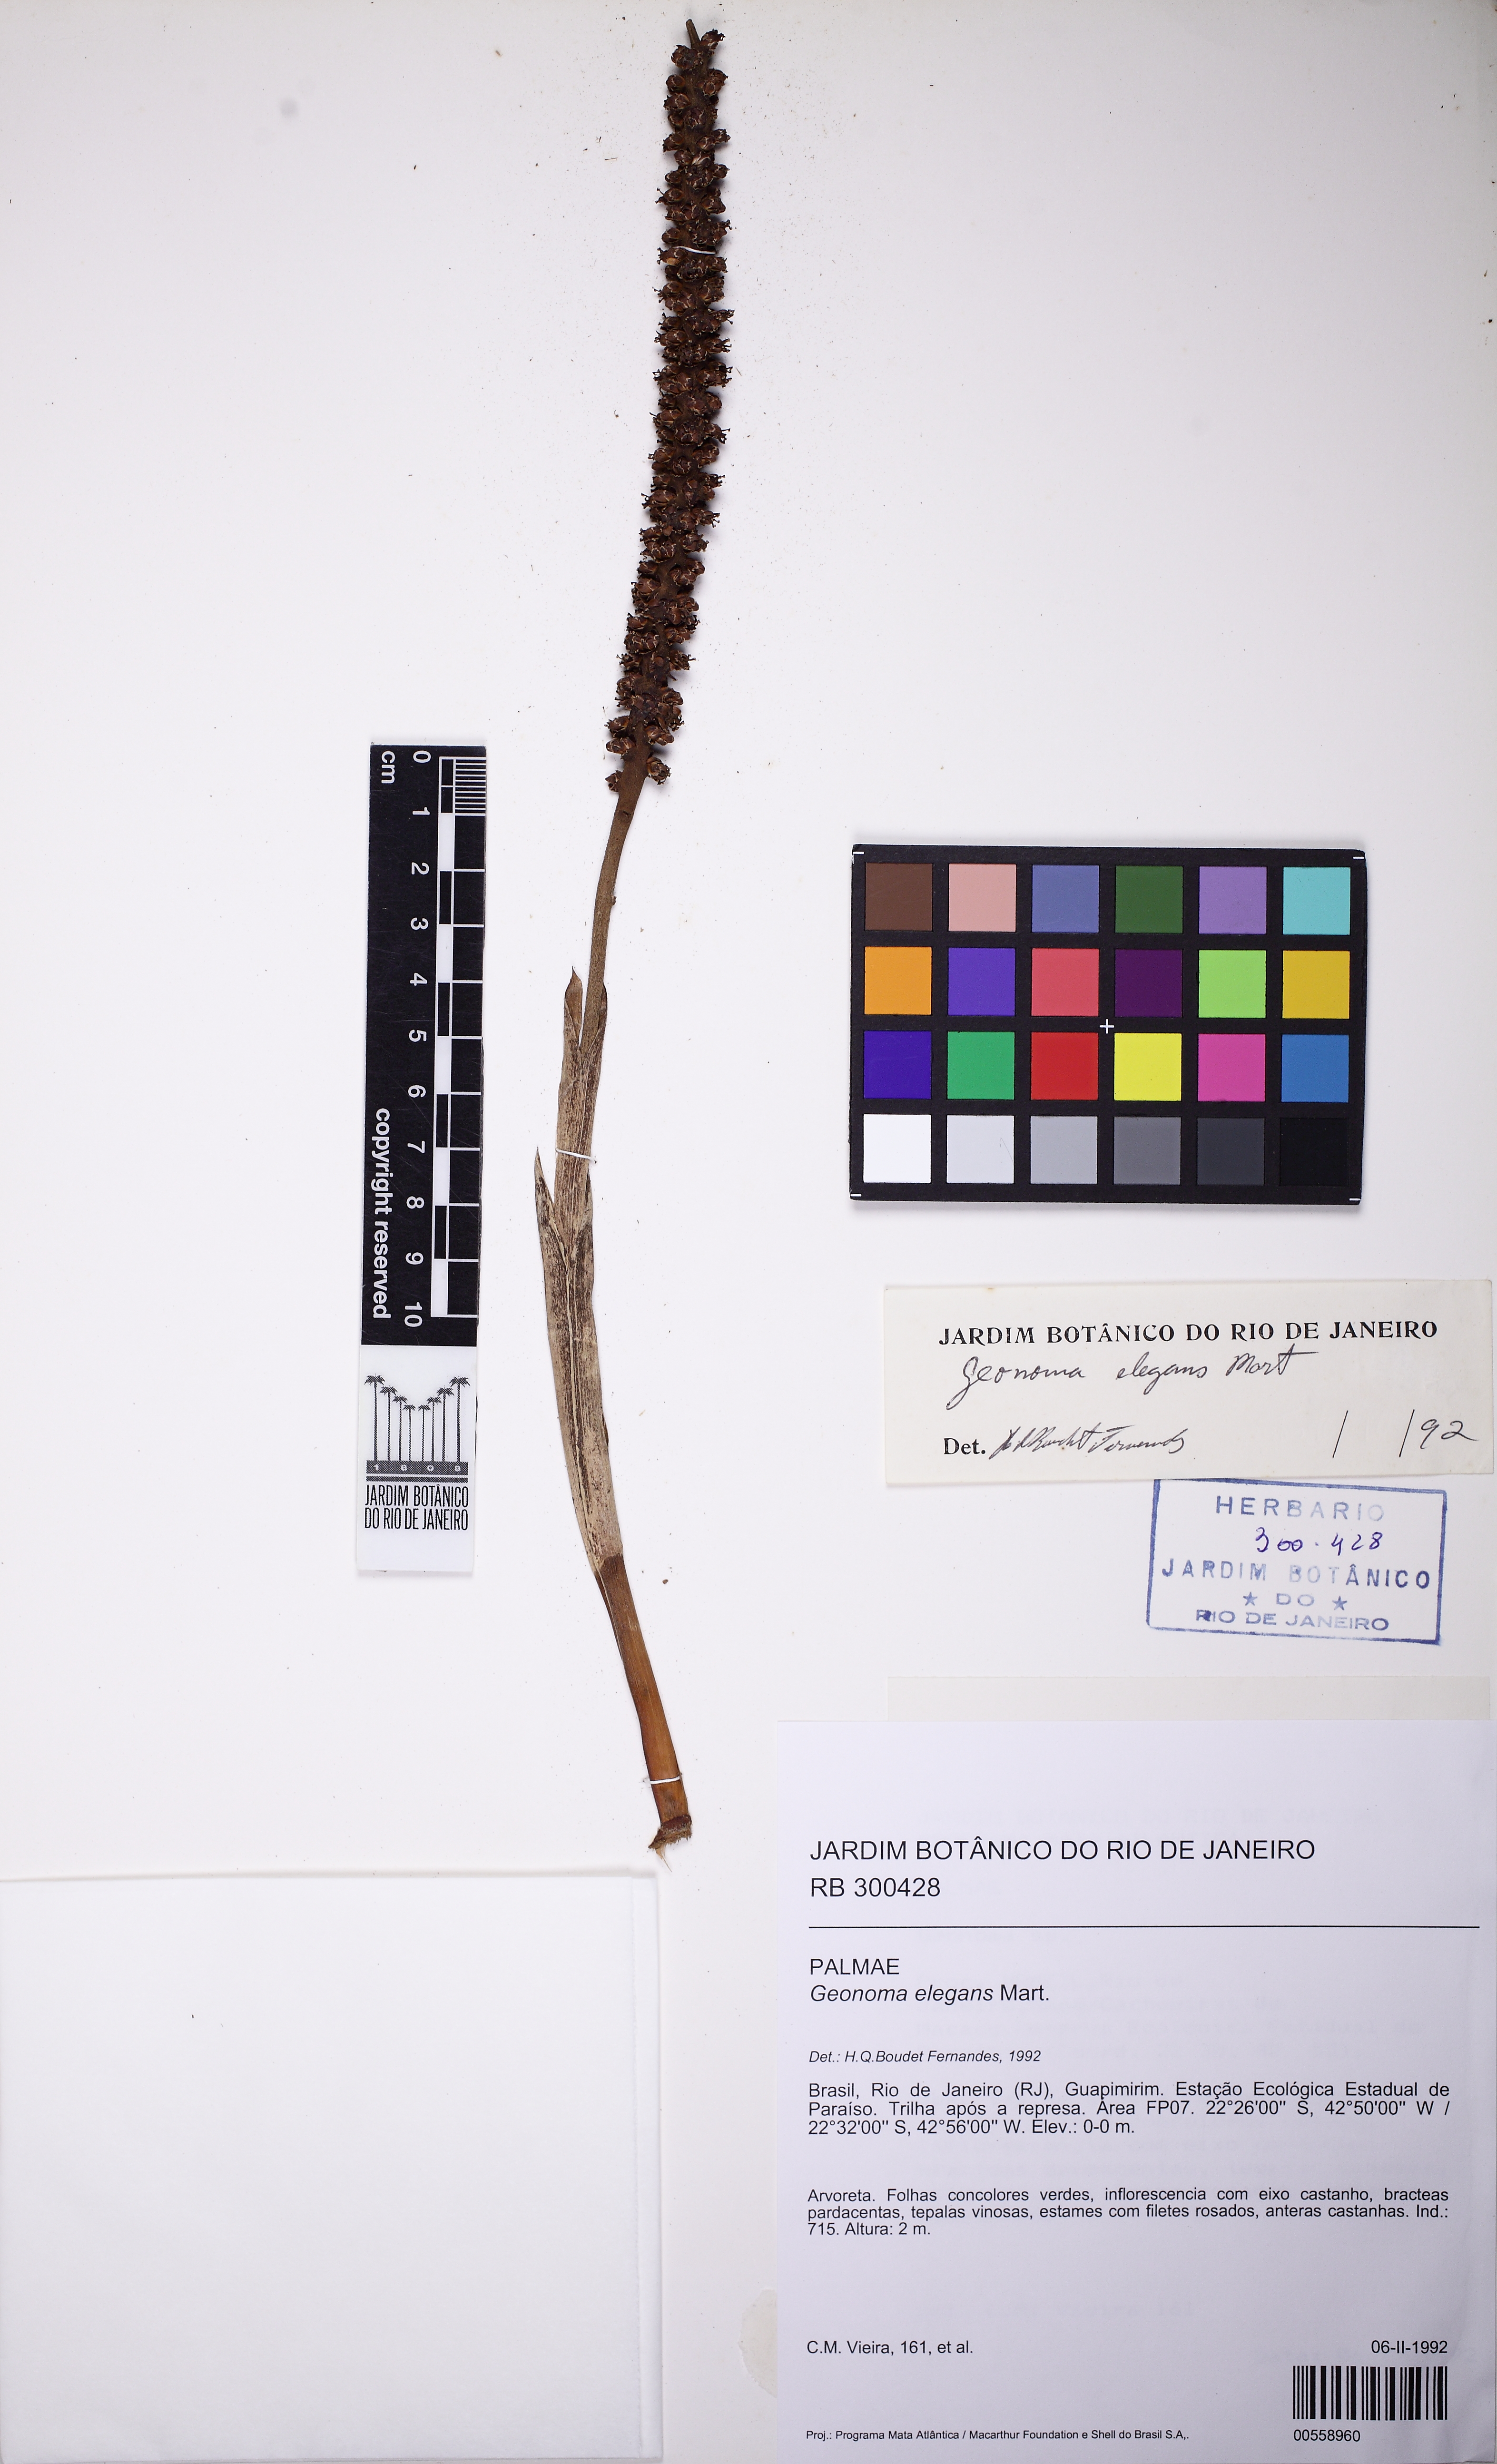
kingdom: Plantae
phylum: Tracheophyta
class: Liliopsida
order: Arecales
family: Arecaceae
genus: Geonoma
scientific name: Geonoma elegans
